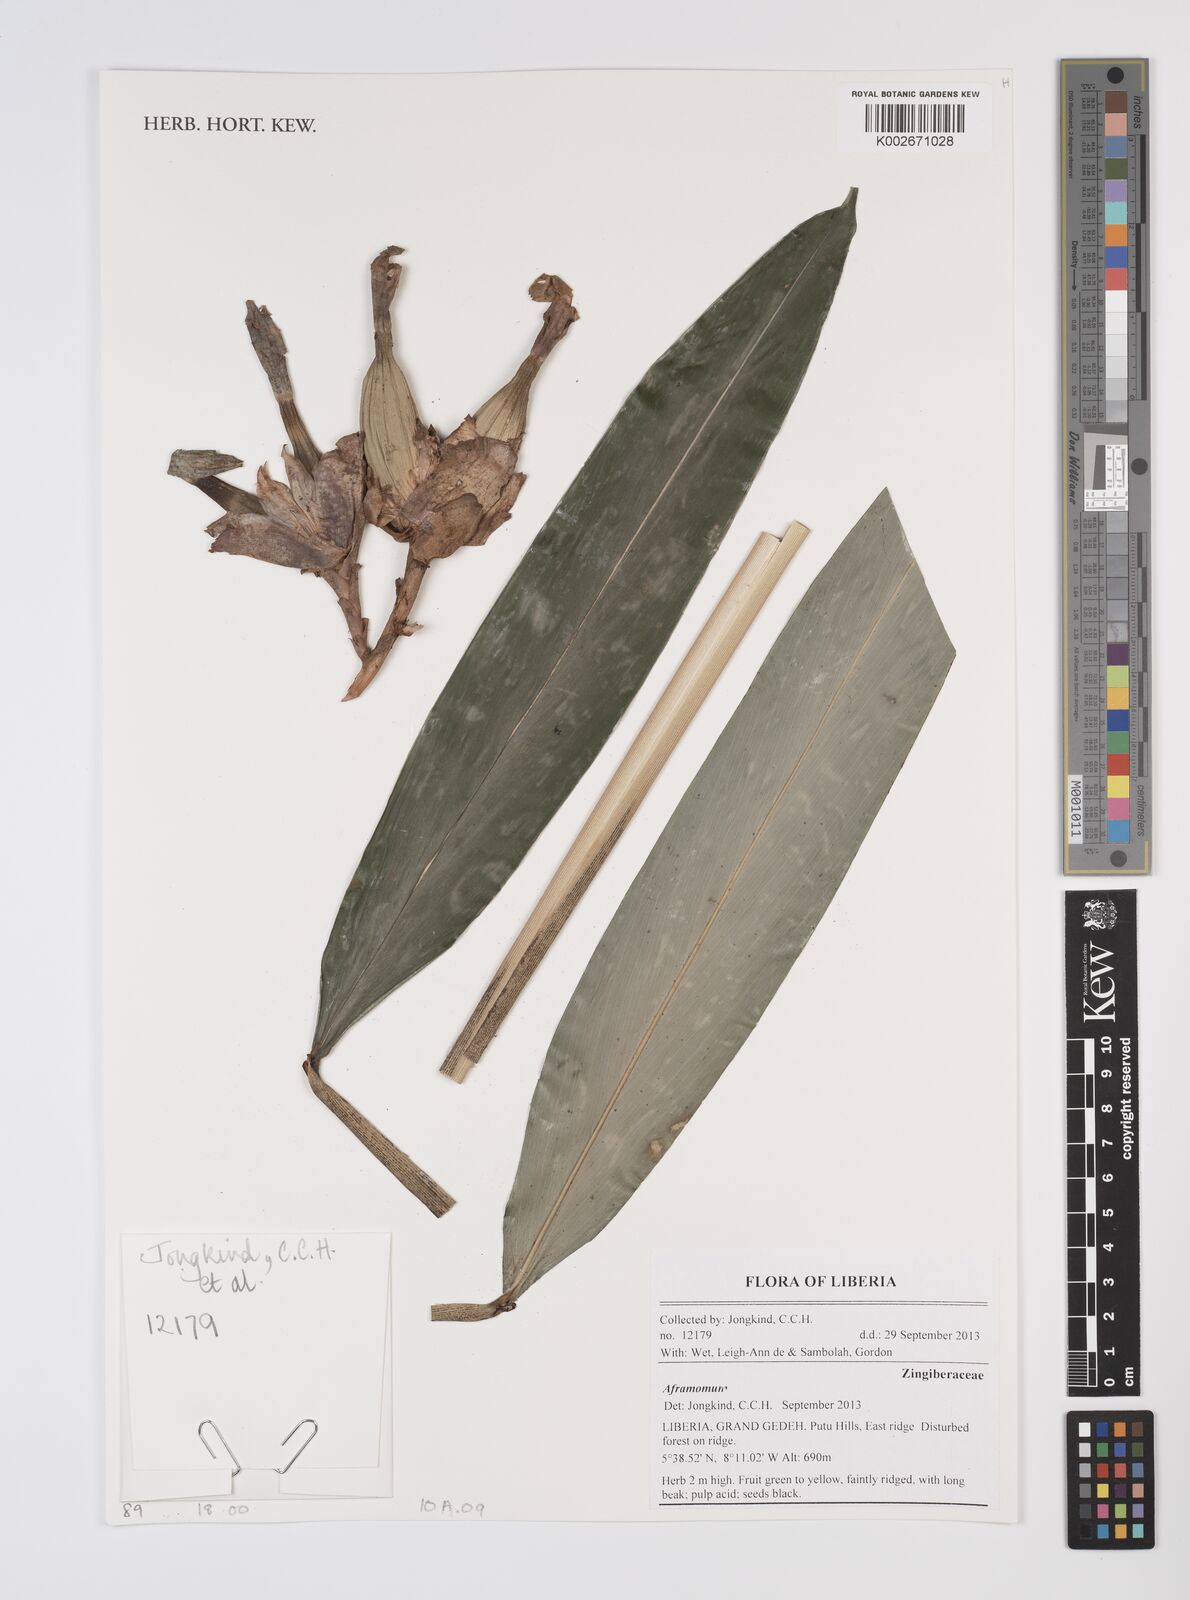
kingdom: Plantae
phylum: Tracheophyta
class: Liliopsida
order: Zingiberales
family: Zingiberaceae
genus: Aframomum
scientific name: Aframomum
